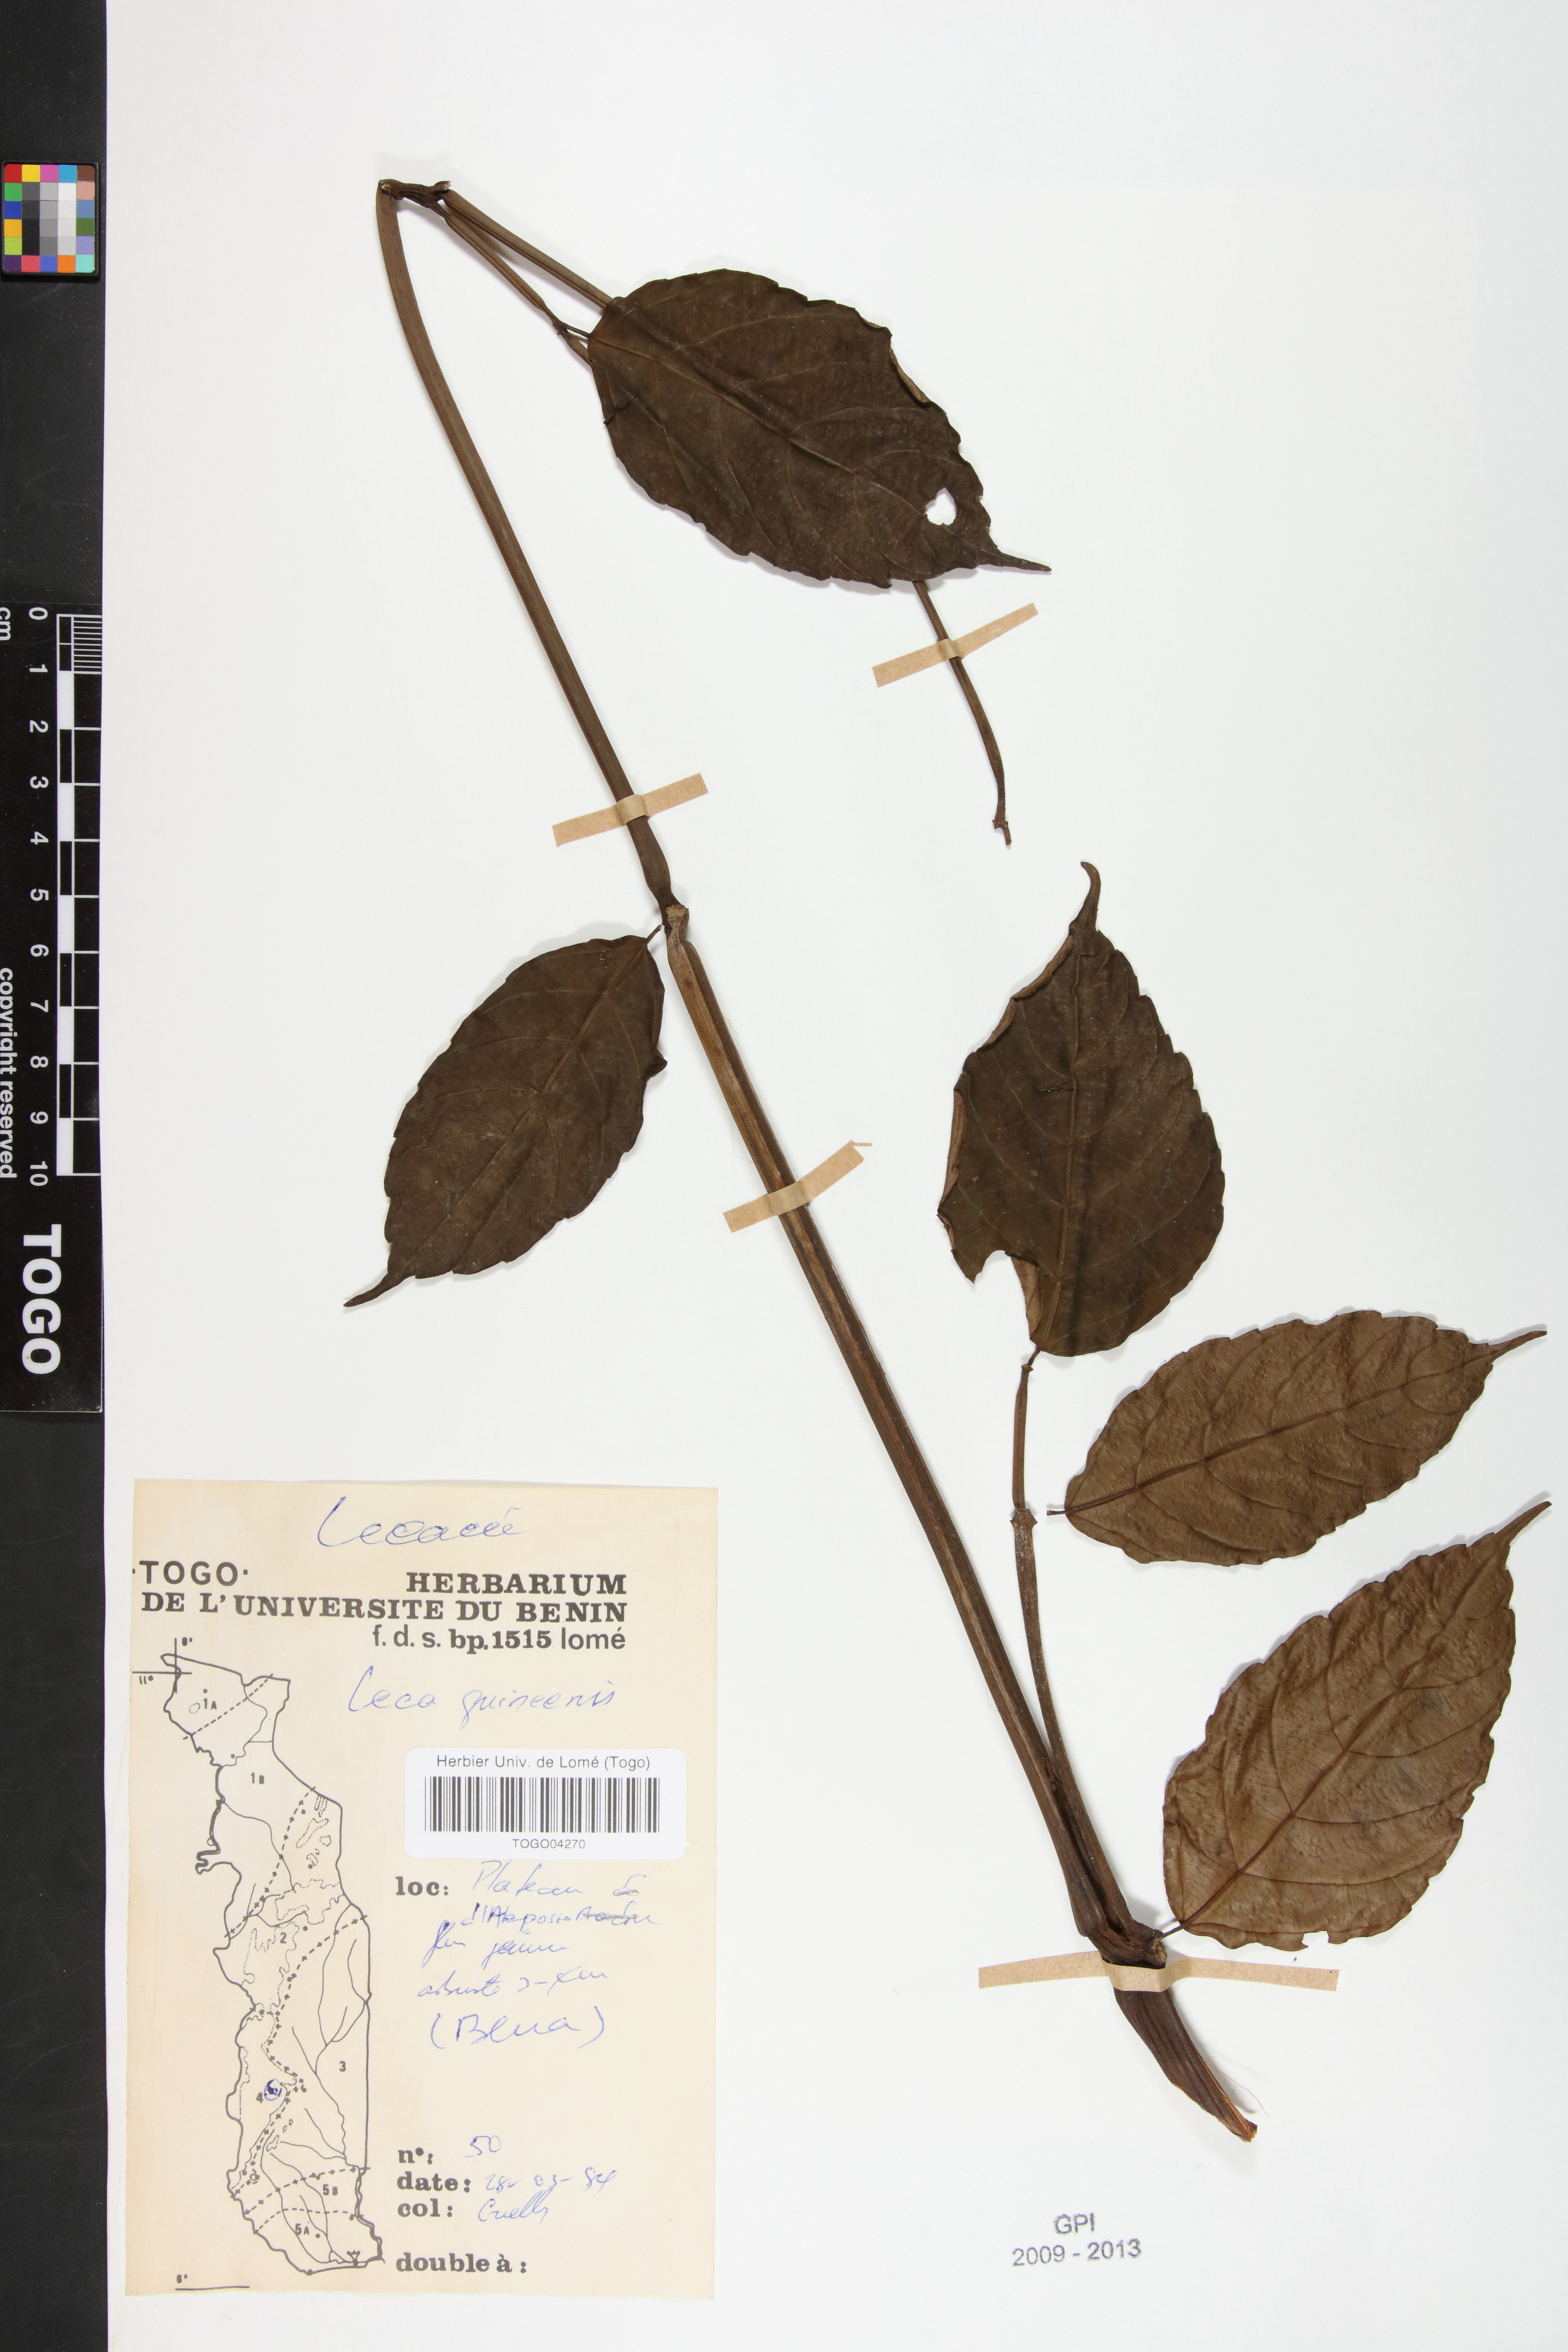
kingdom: Plantae
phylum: Tracheophyta
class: Magnoliopsida
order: Vitales
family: Vitaceae
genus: Leea
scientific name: Leea guineensis
